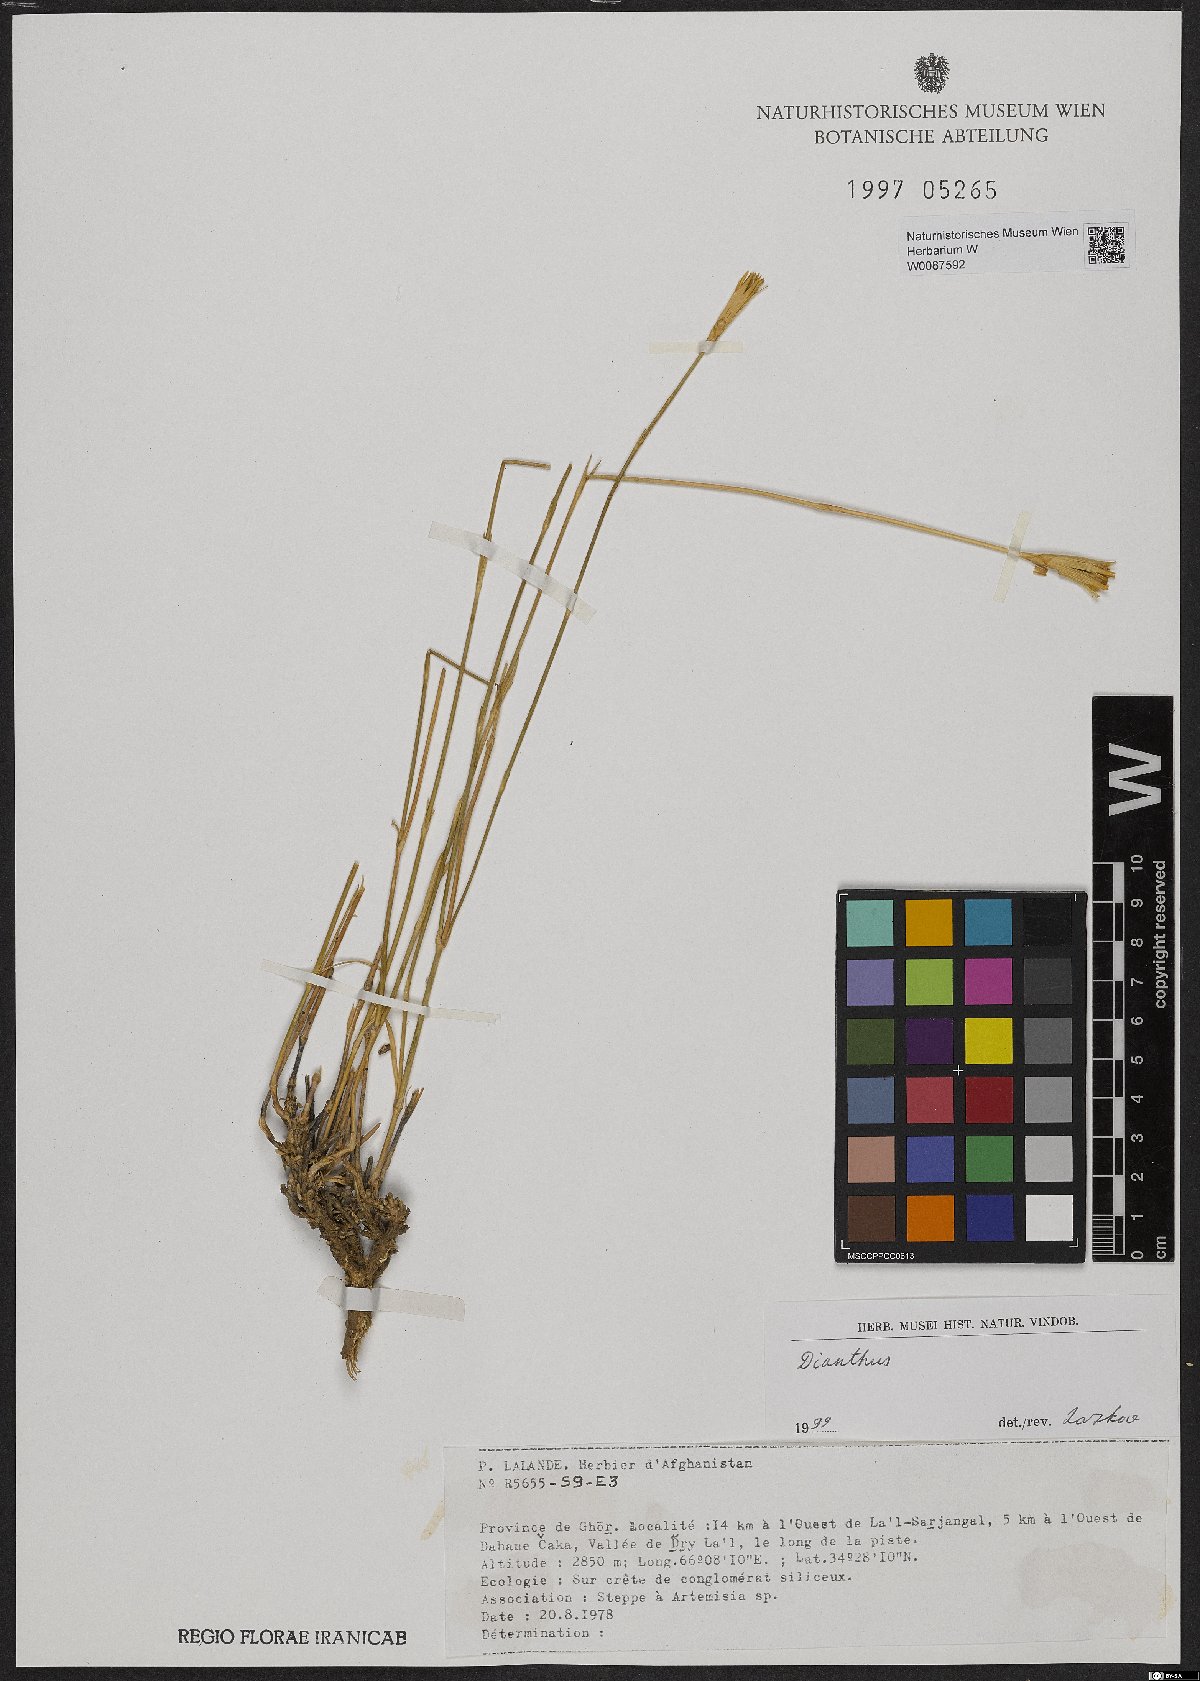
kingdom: Plantae
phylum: Tracheophyta
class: Magnoliopsida
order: Caryophyllales
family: Caryophyllaceae
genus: Dianthus
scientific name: Dianthus
